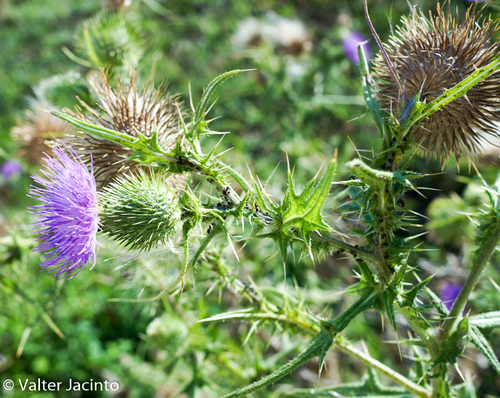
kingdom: Plantae
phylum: Tracheophyta
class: Magnoliopsida
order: Asterales
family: Asteraceae
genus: Cirsium
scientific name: Cirsium vulgare
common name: Bull thistle
